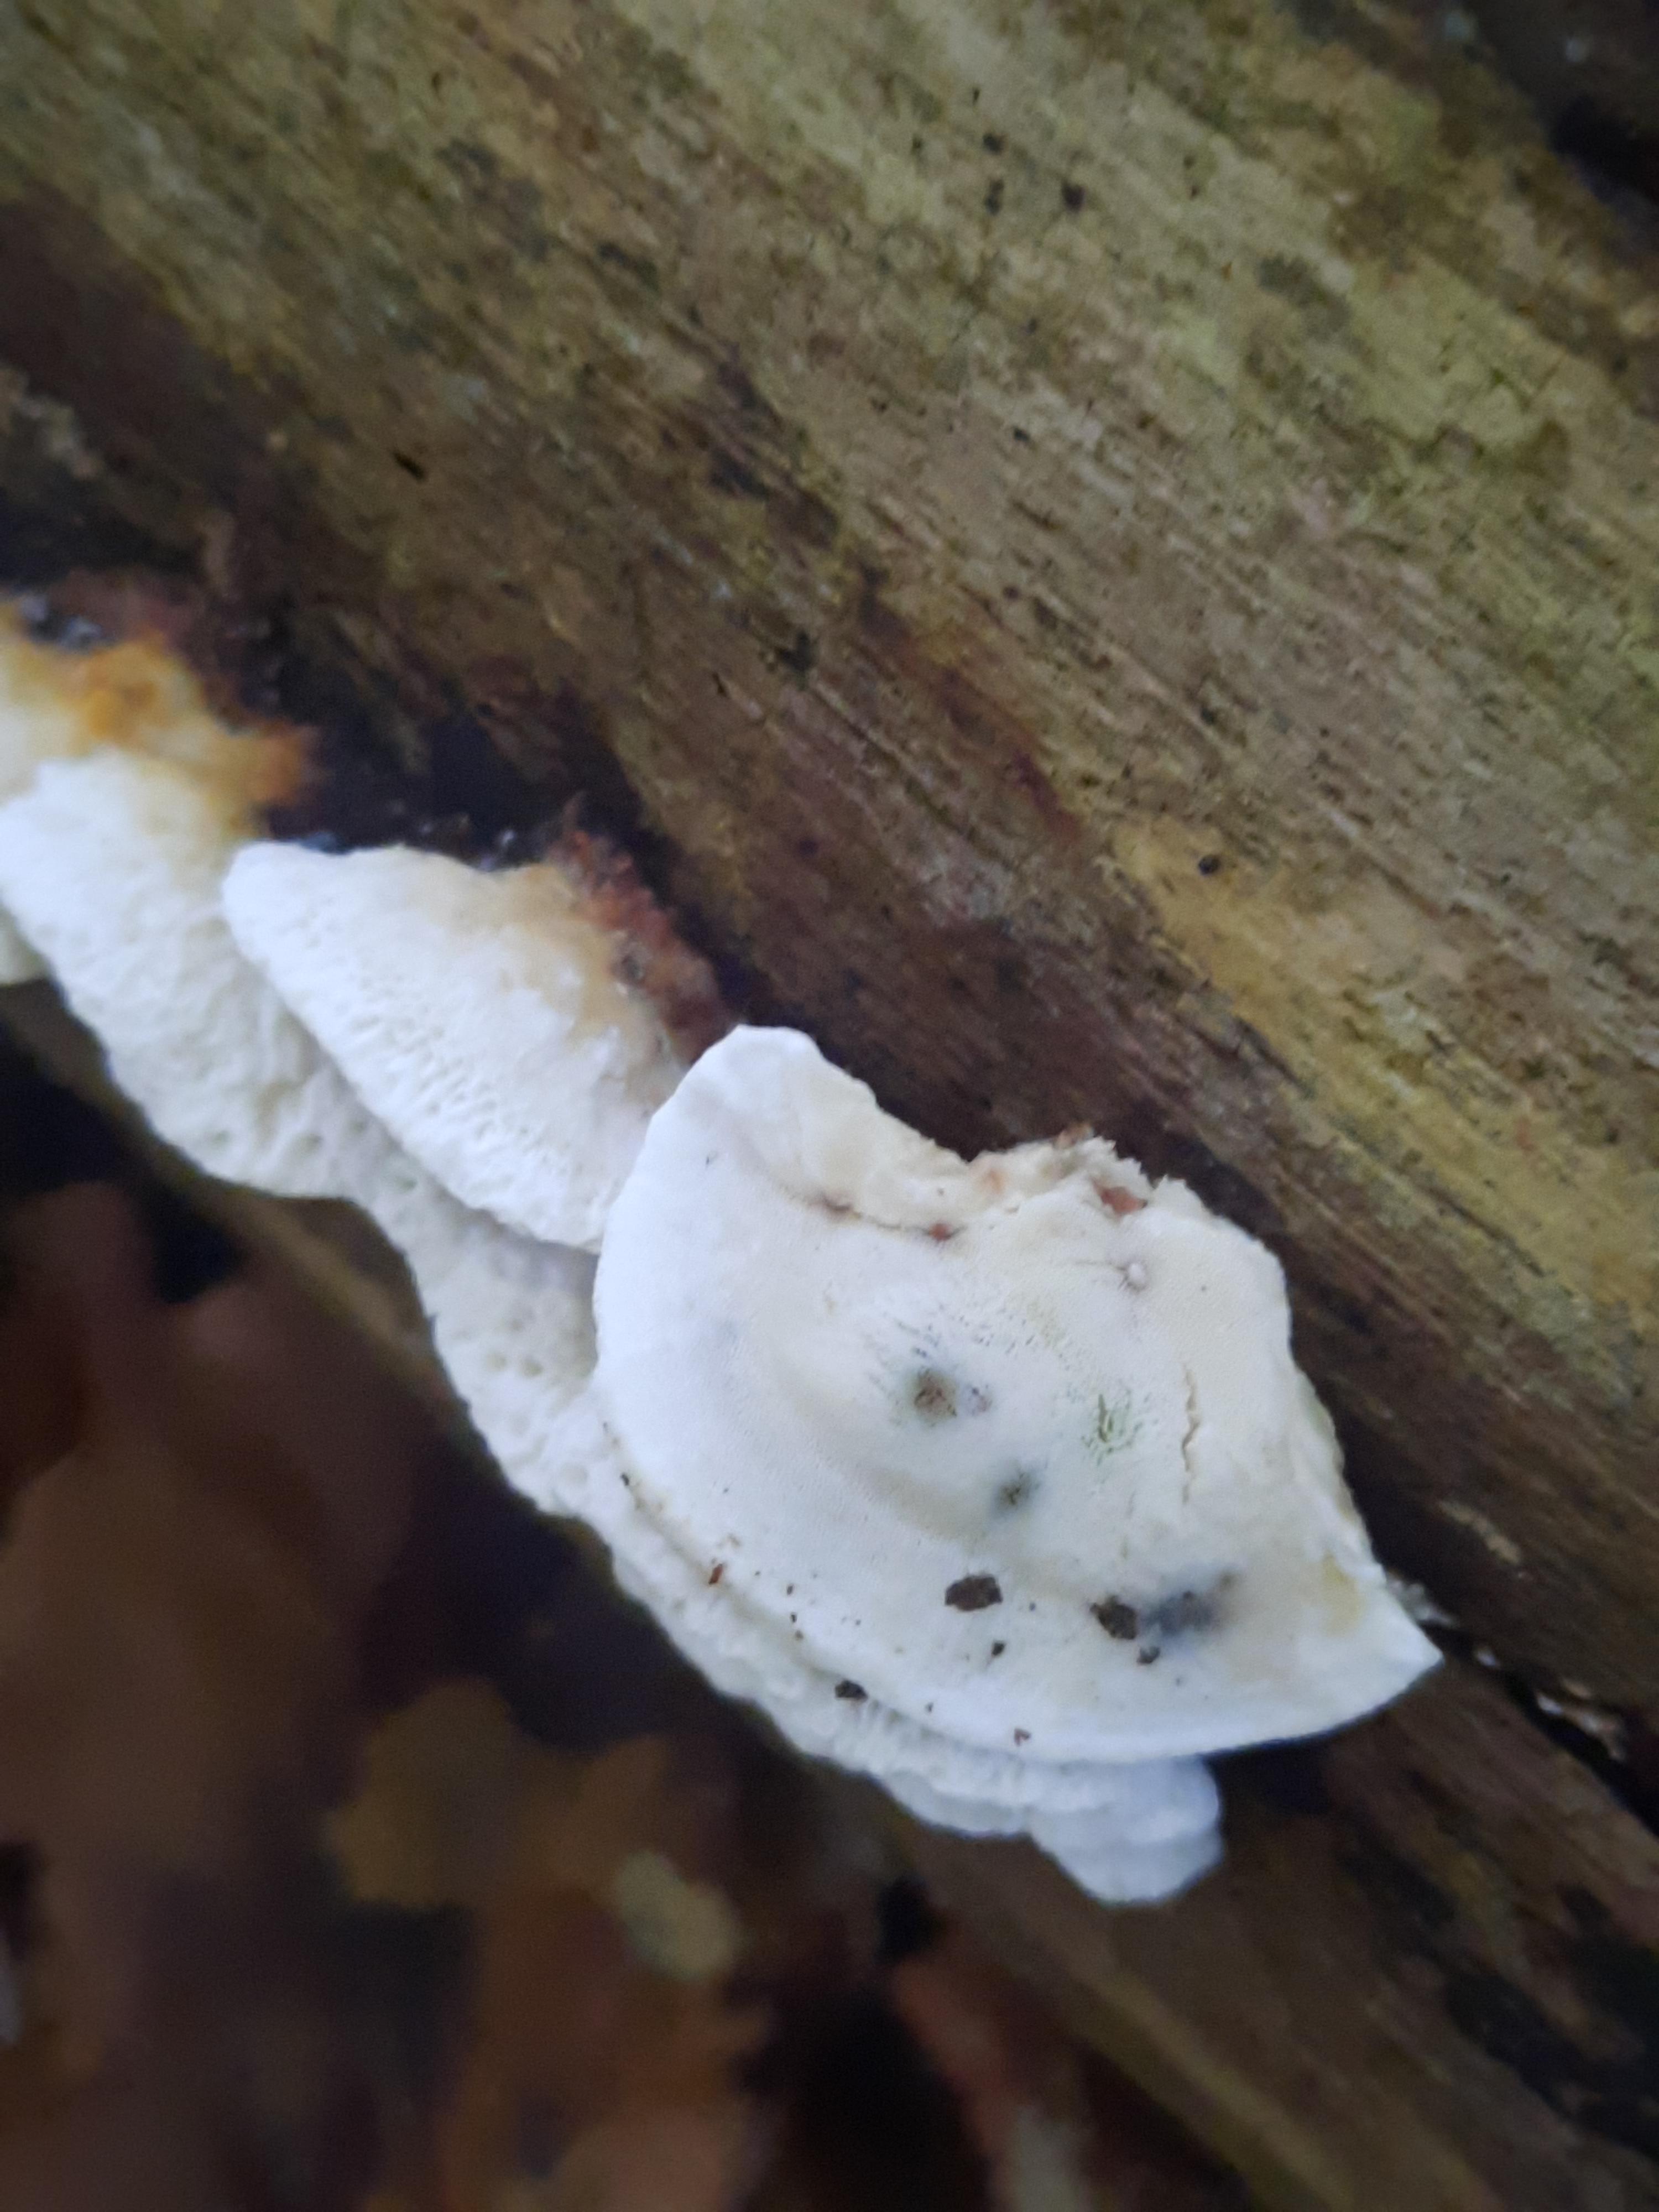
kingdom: Fungi
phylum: Basidiomycota
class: Agaricomycetes
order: Polyporales
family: Incrustoporiaceae
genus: Skeletocutis
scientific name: Skeletocutis nemoralis
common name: stor krystalporesvamp
